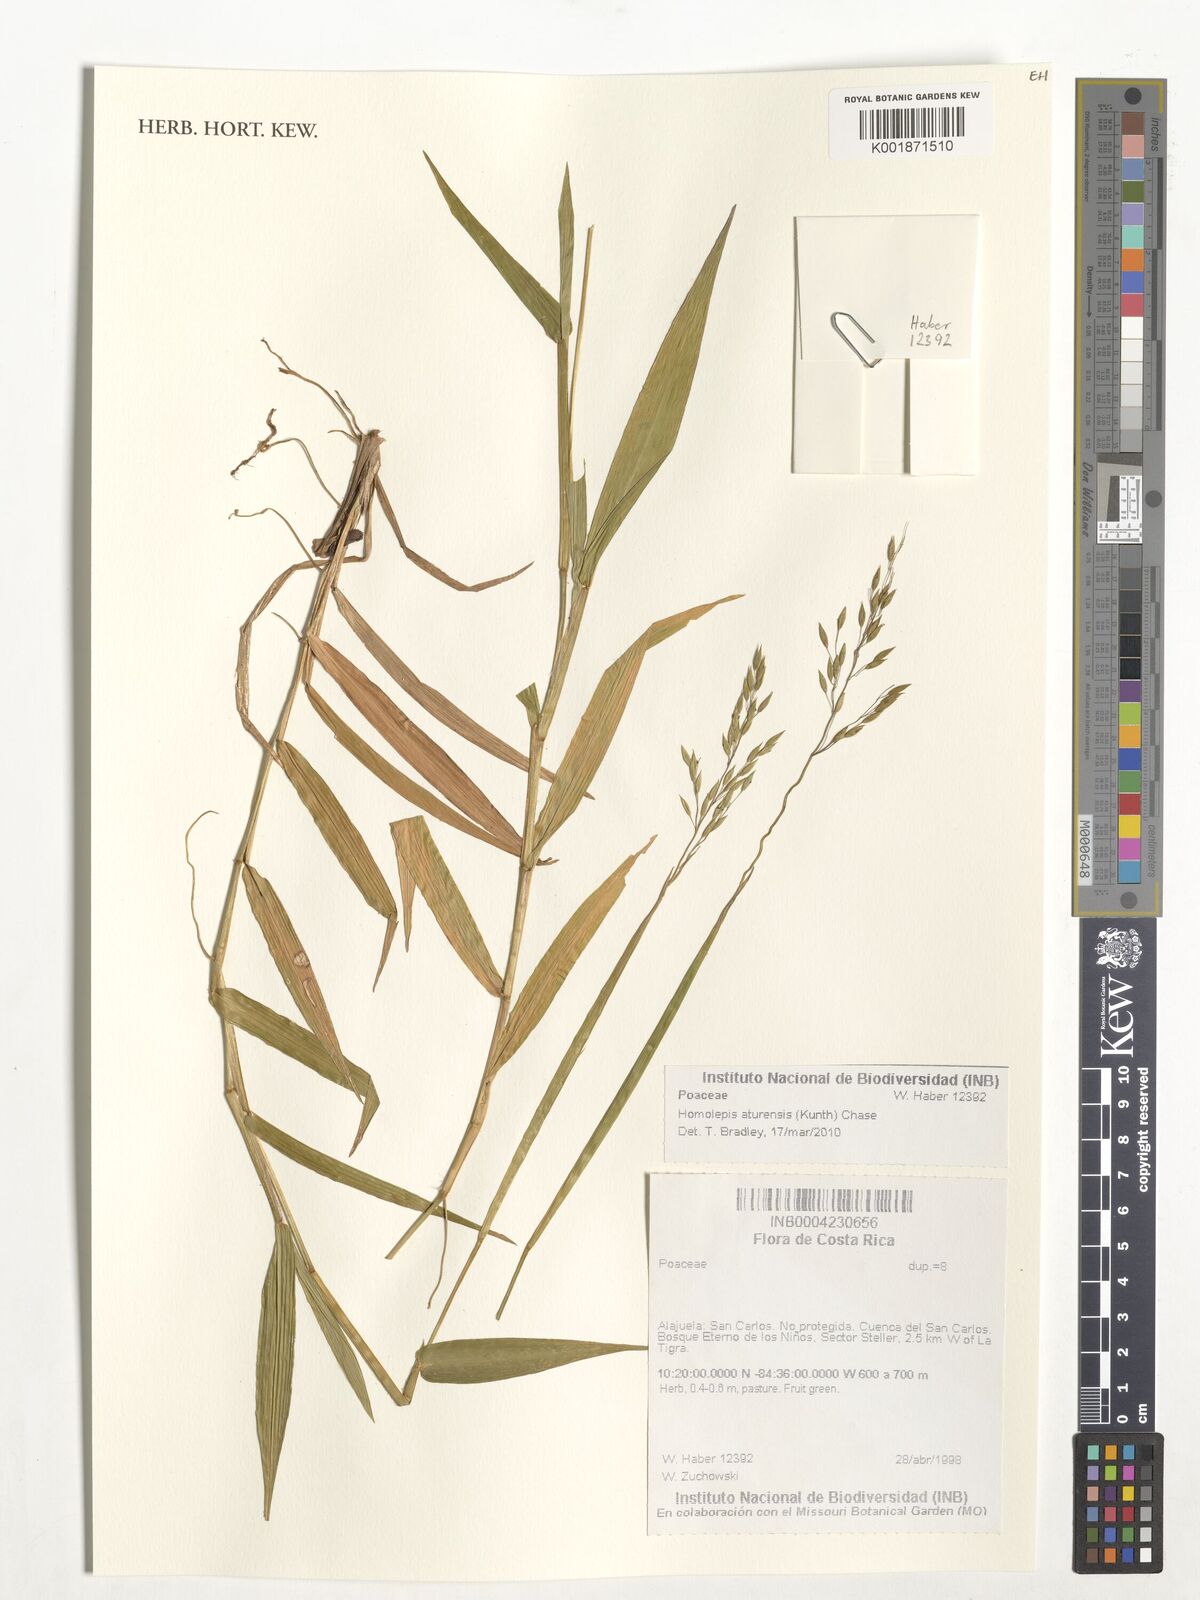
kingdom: Plantae
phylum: Tracheophyta
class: Liliopsida
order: Poales
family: Poaceae
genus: Homolepis
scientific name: Homolepis aturensis
